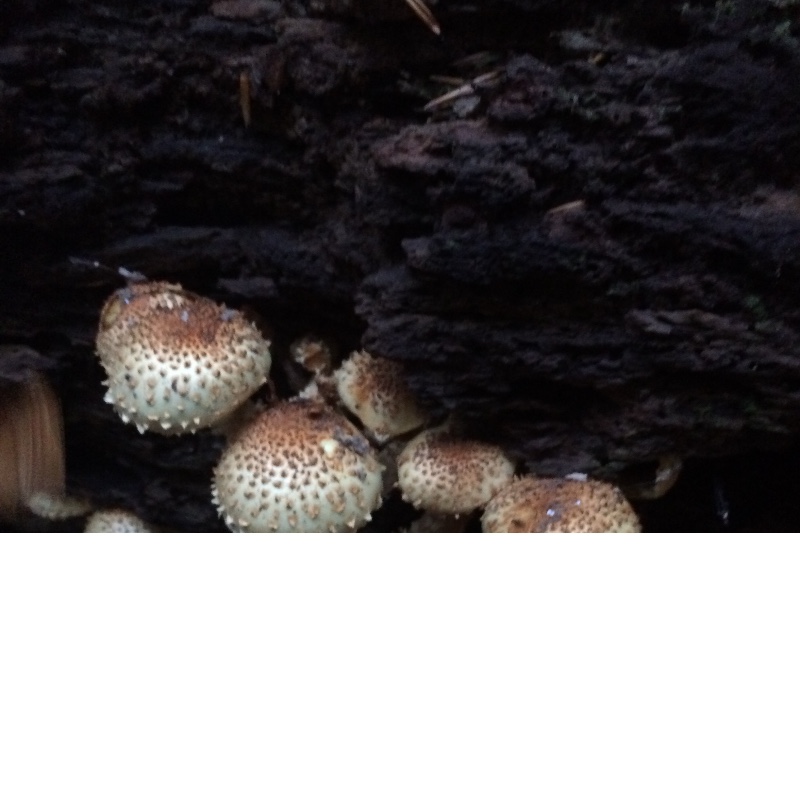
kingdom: Fungi
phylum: Basidiomycota
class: Agaricomycetes
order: Agaricales
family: Strophariaceae
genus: Pholiota
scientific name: Pholiota squarrosa
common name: krumskællet skælhat
